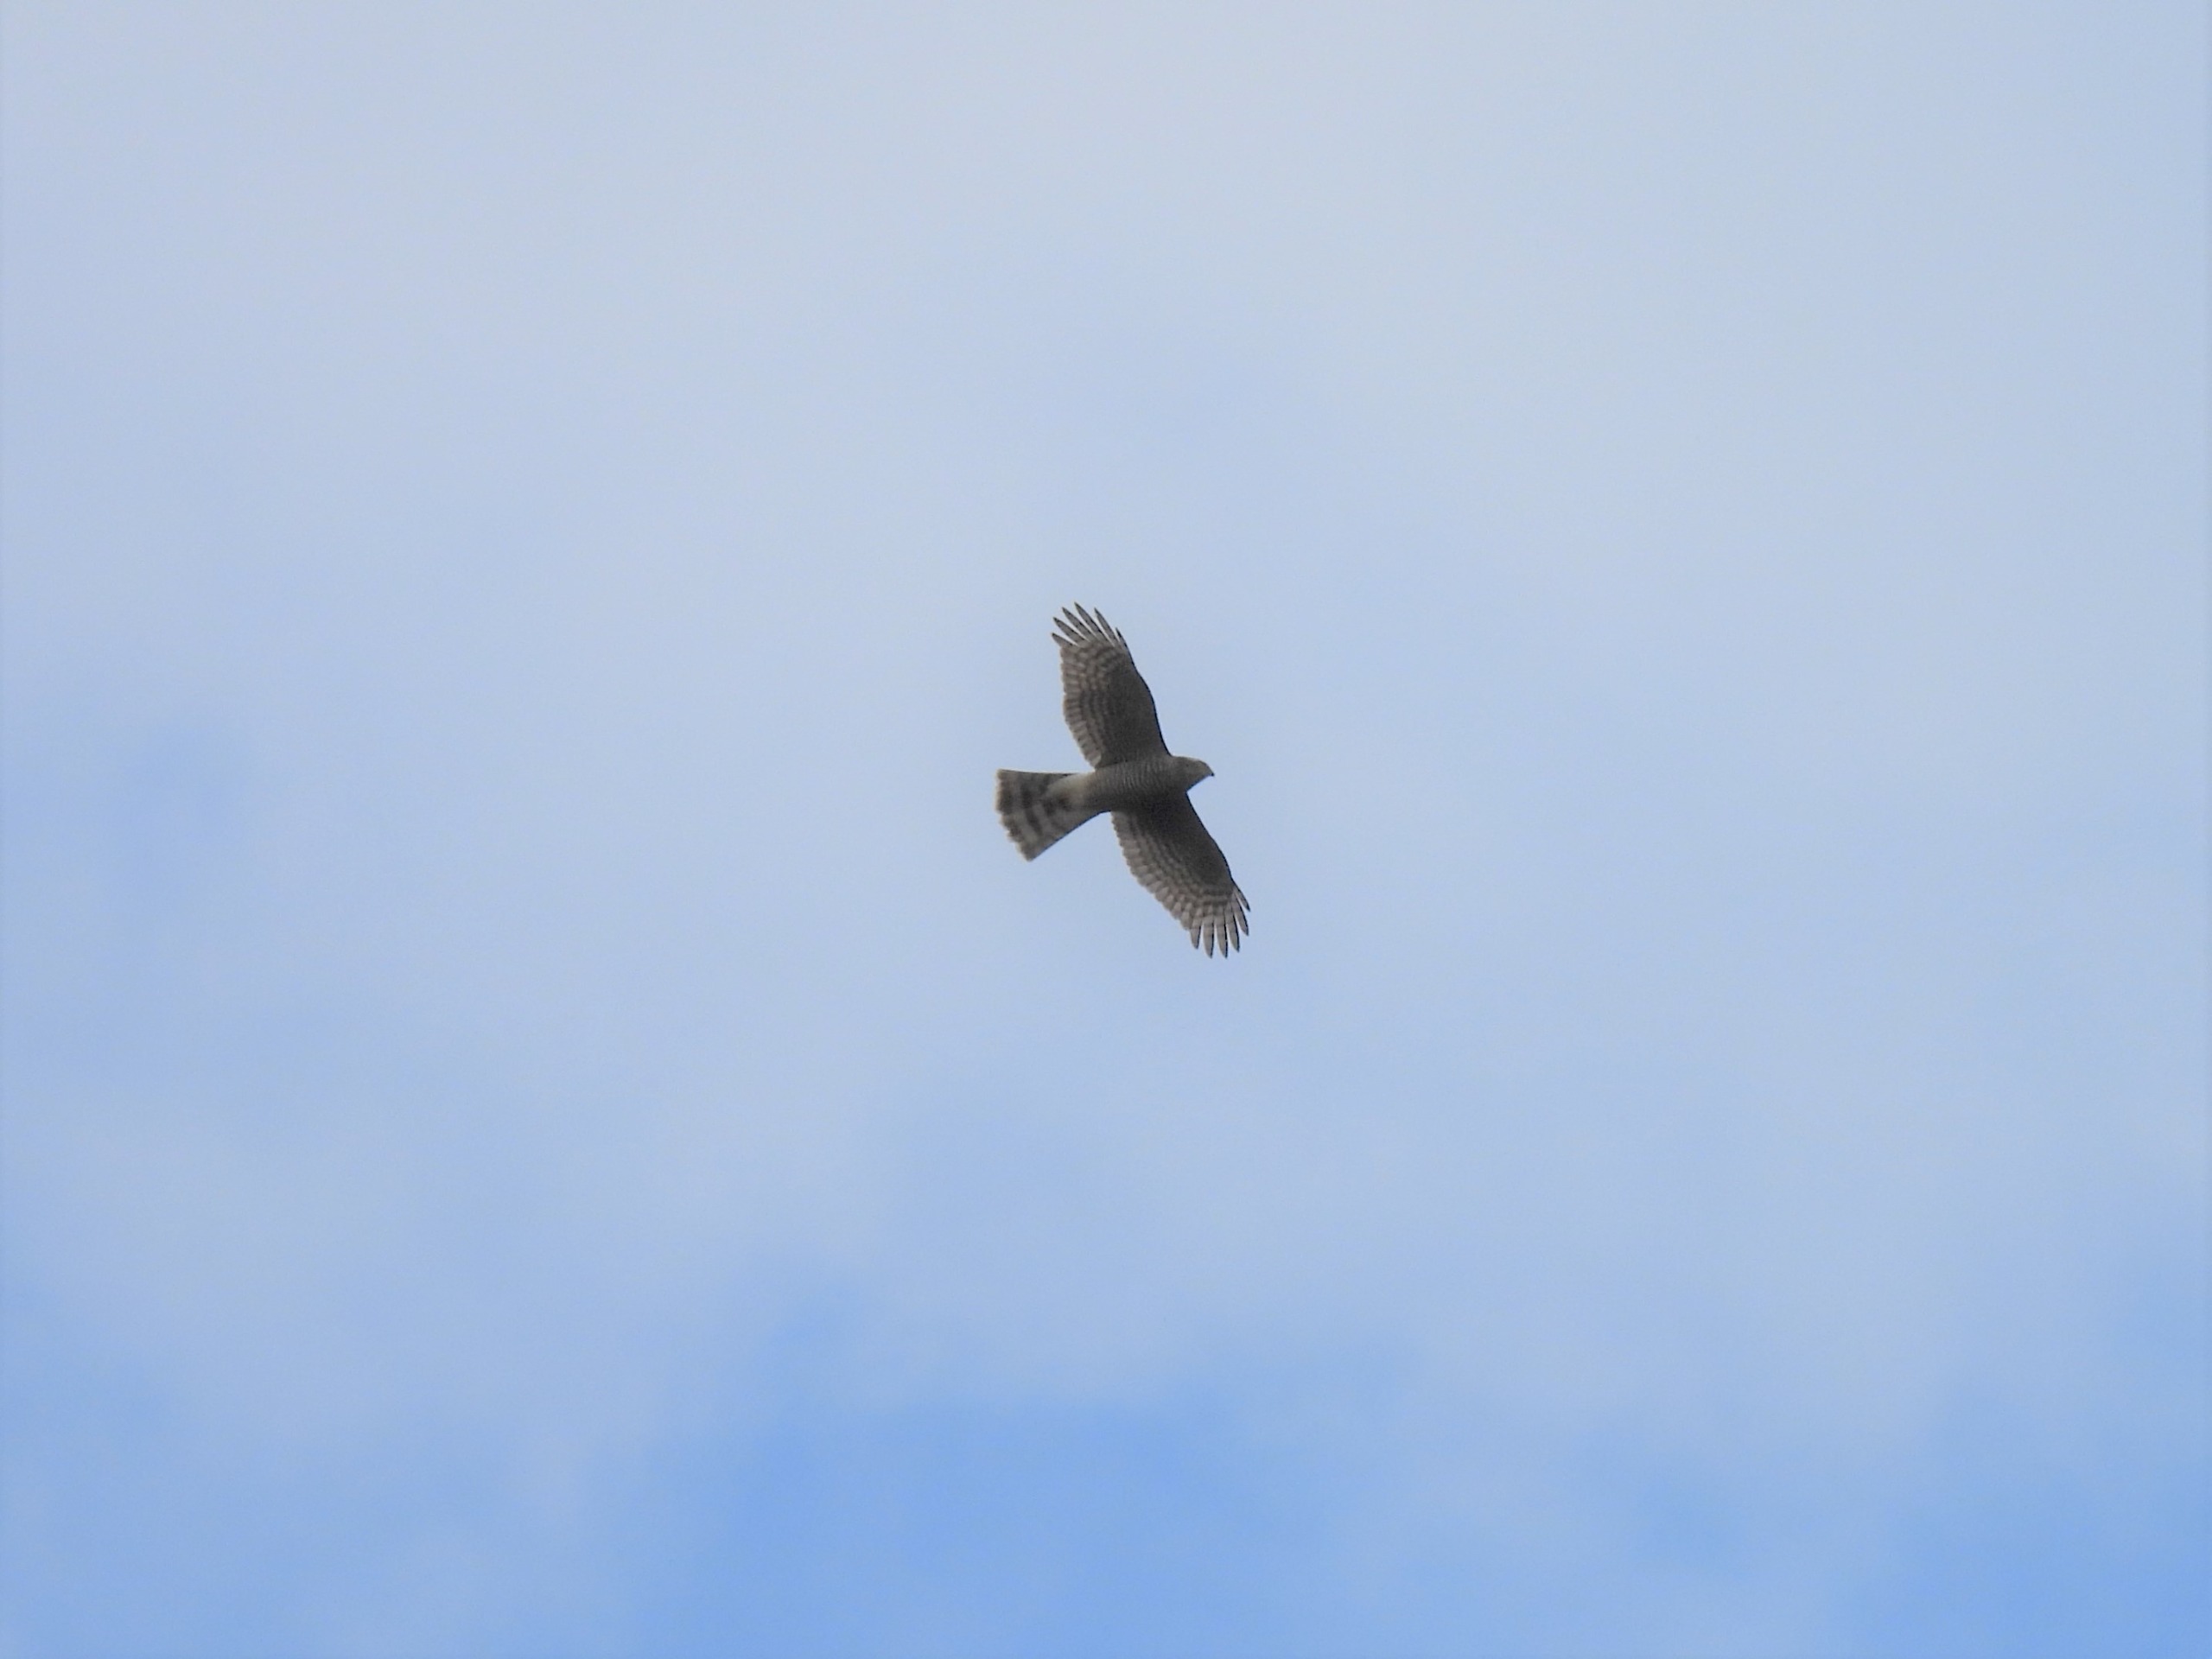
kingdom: Animalia
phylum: Chordata
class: Aves
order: Accipitriformes
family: Accipitridae
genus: Accipiter
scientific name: Accipiter gentilis
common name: Duehøg
